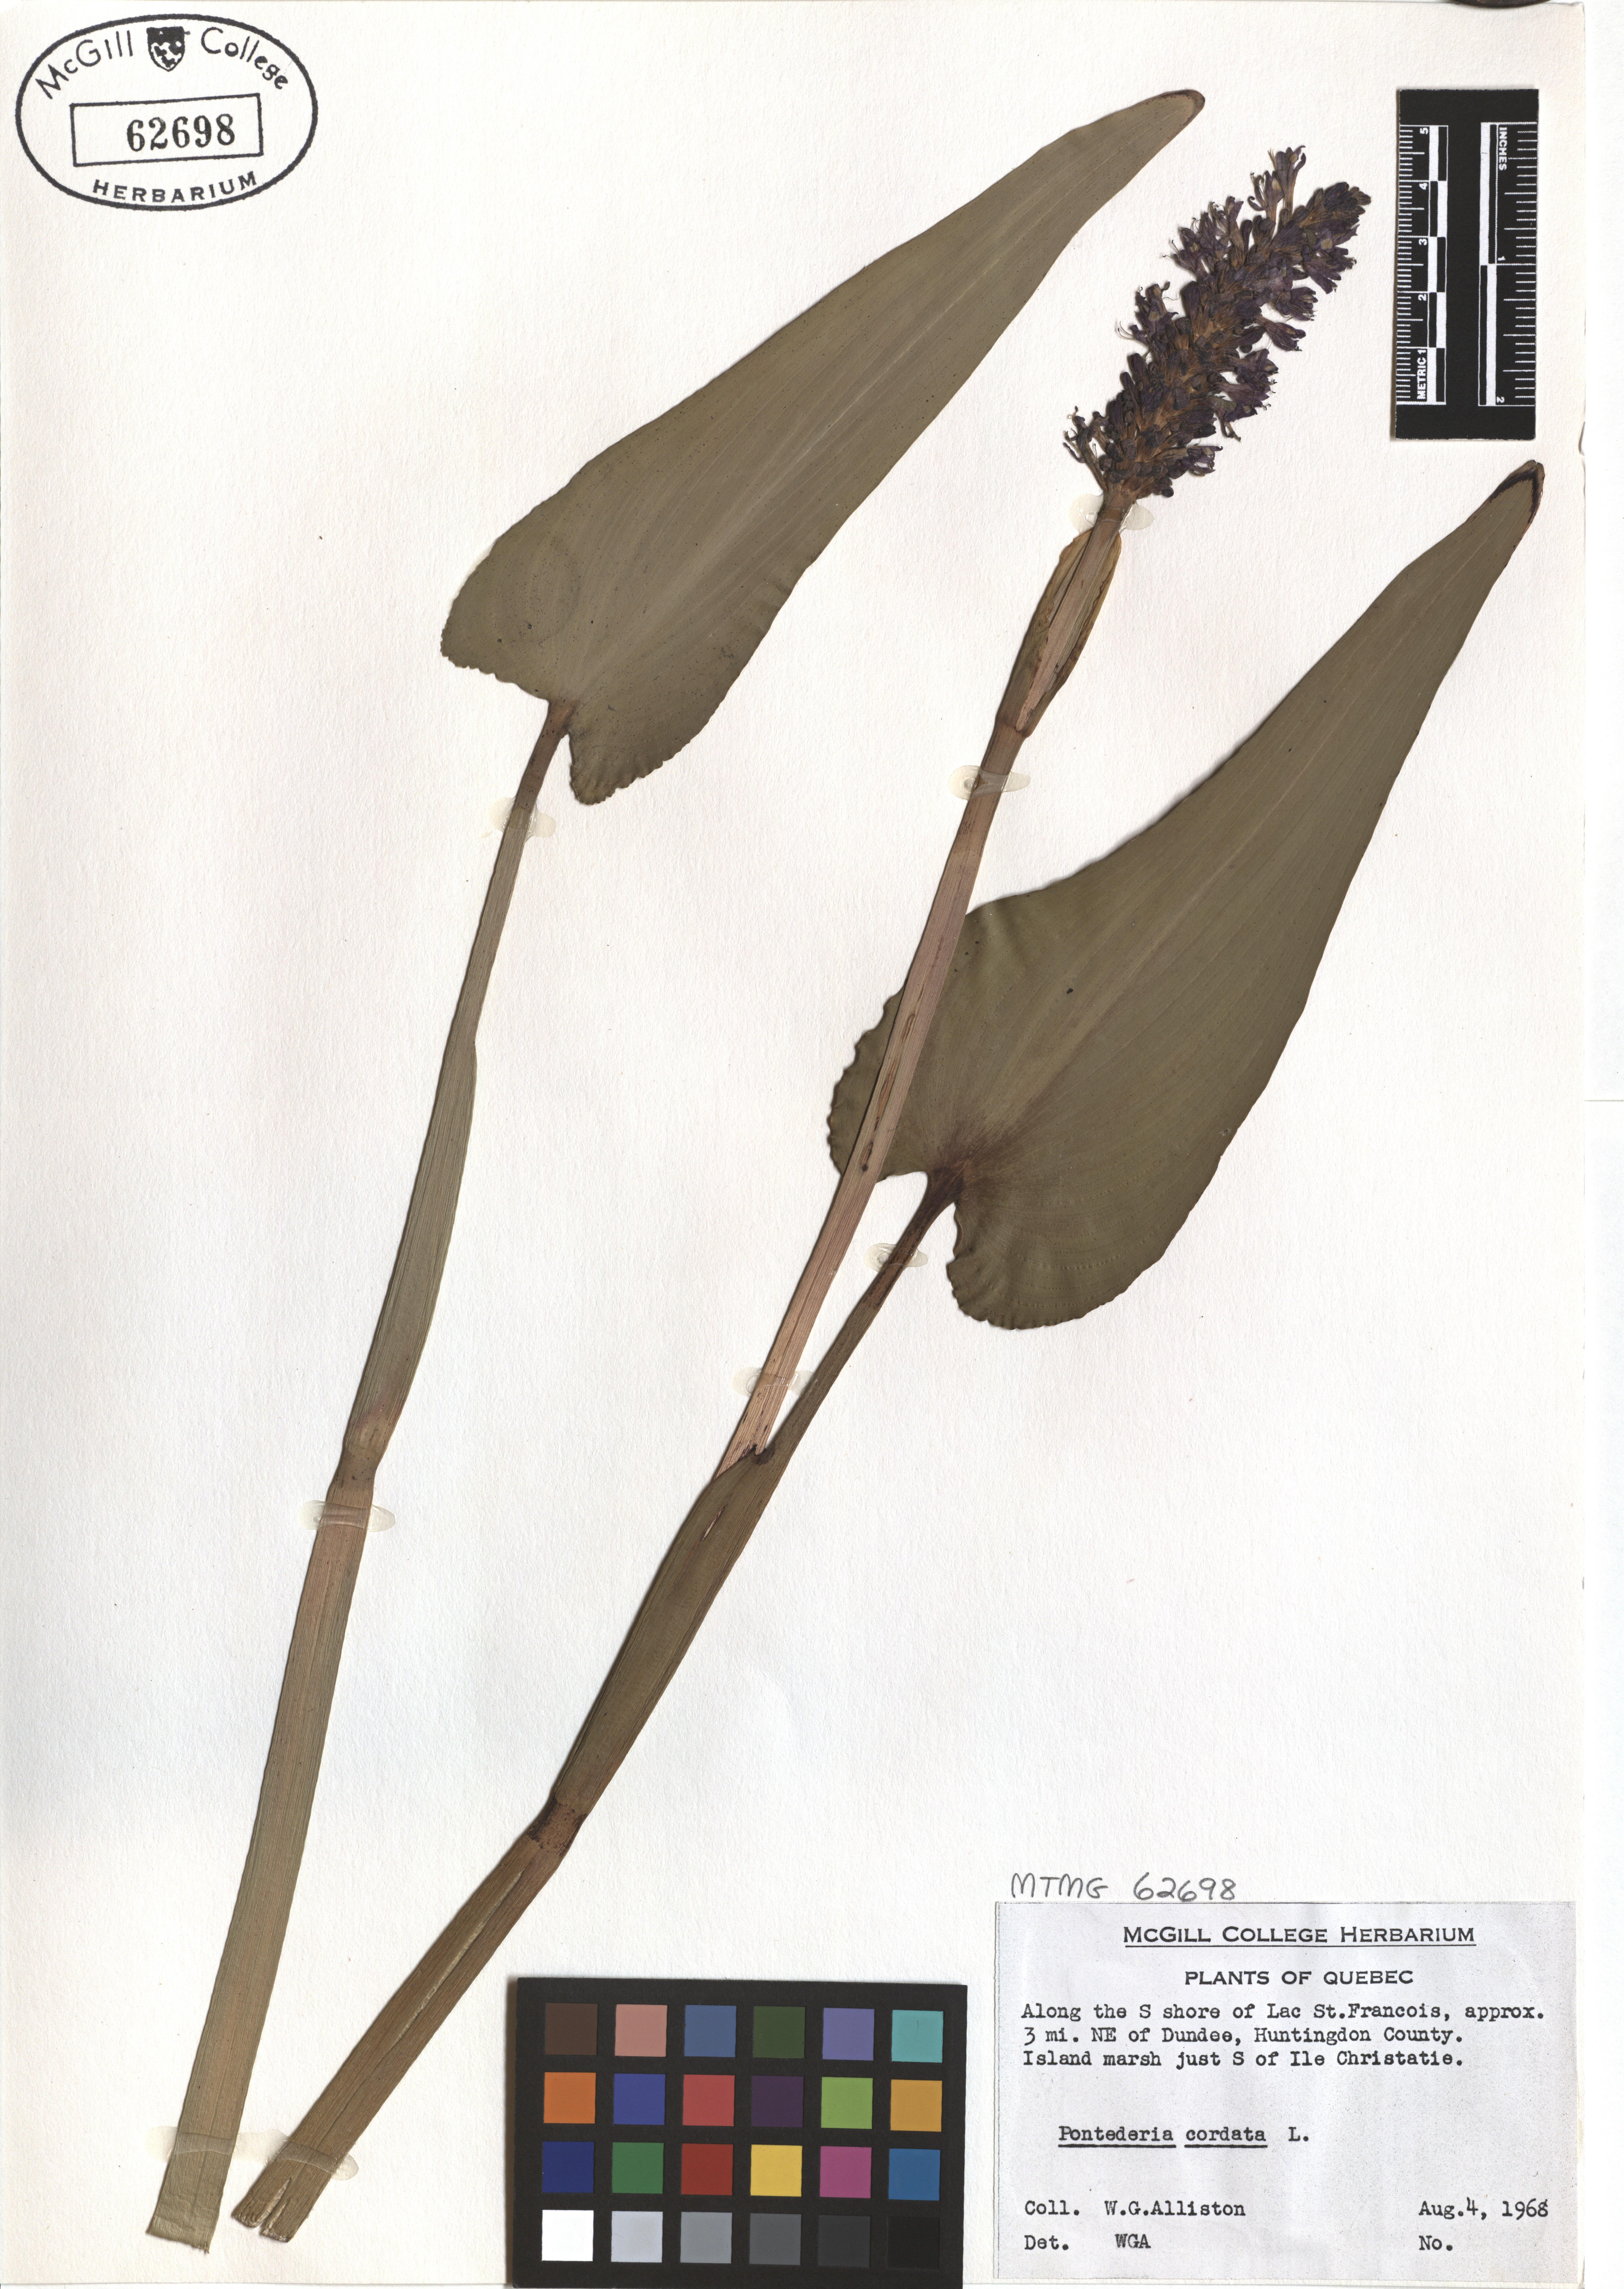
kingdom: Plantae
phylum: Tracheophyta
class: Liliopsida
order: Commelinales
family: Pontederiaceae
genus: Pontederia
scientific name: Pontederia cordata
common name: Pickerelweed
